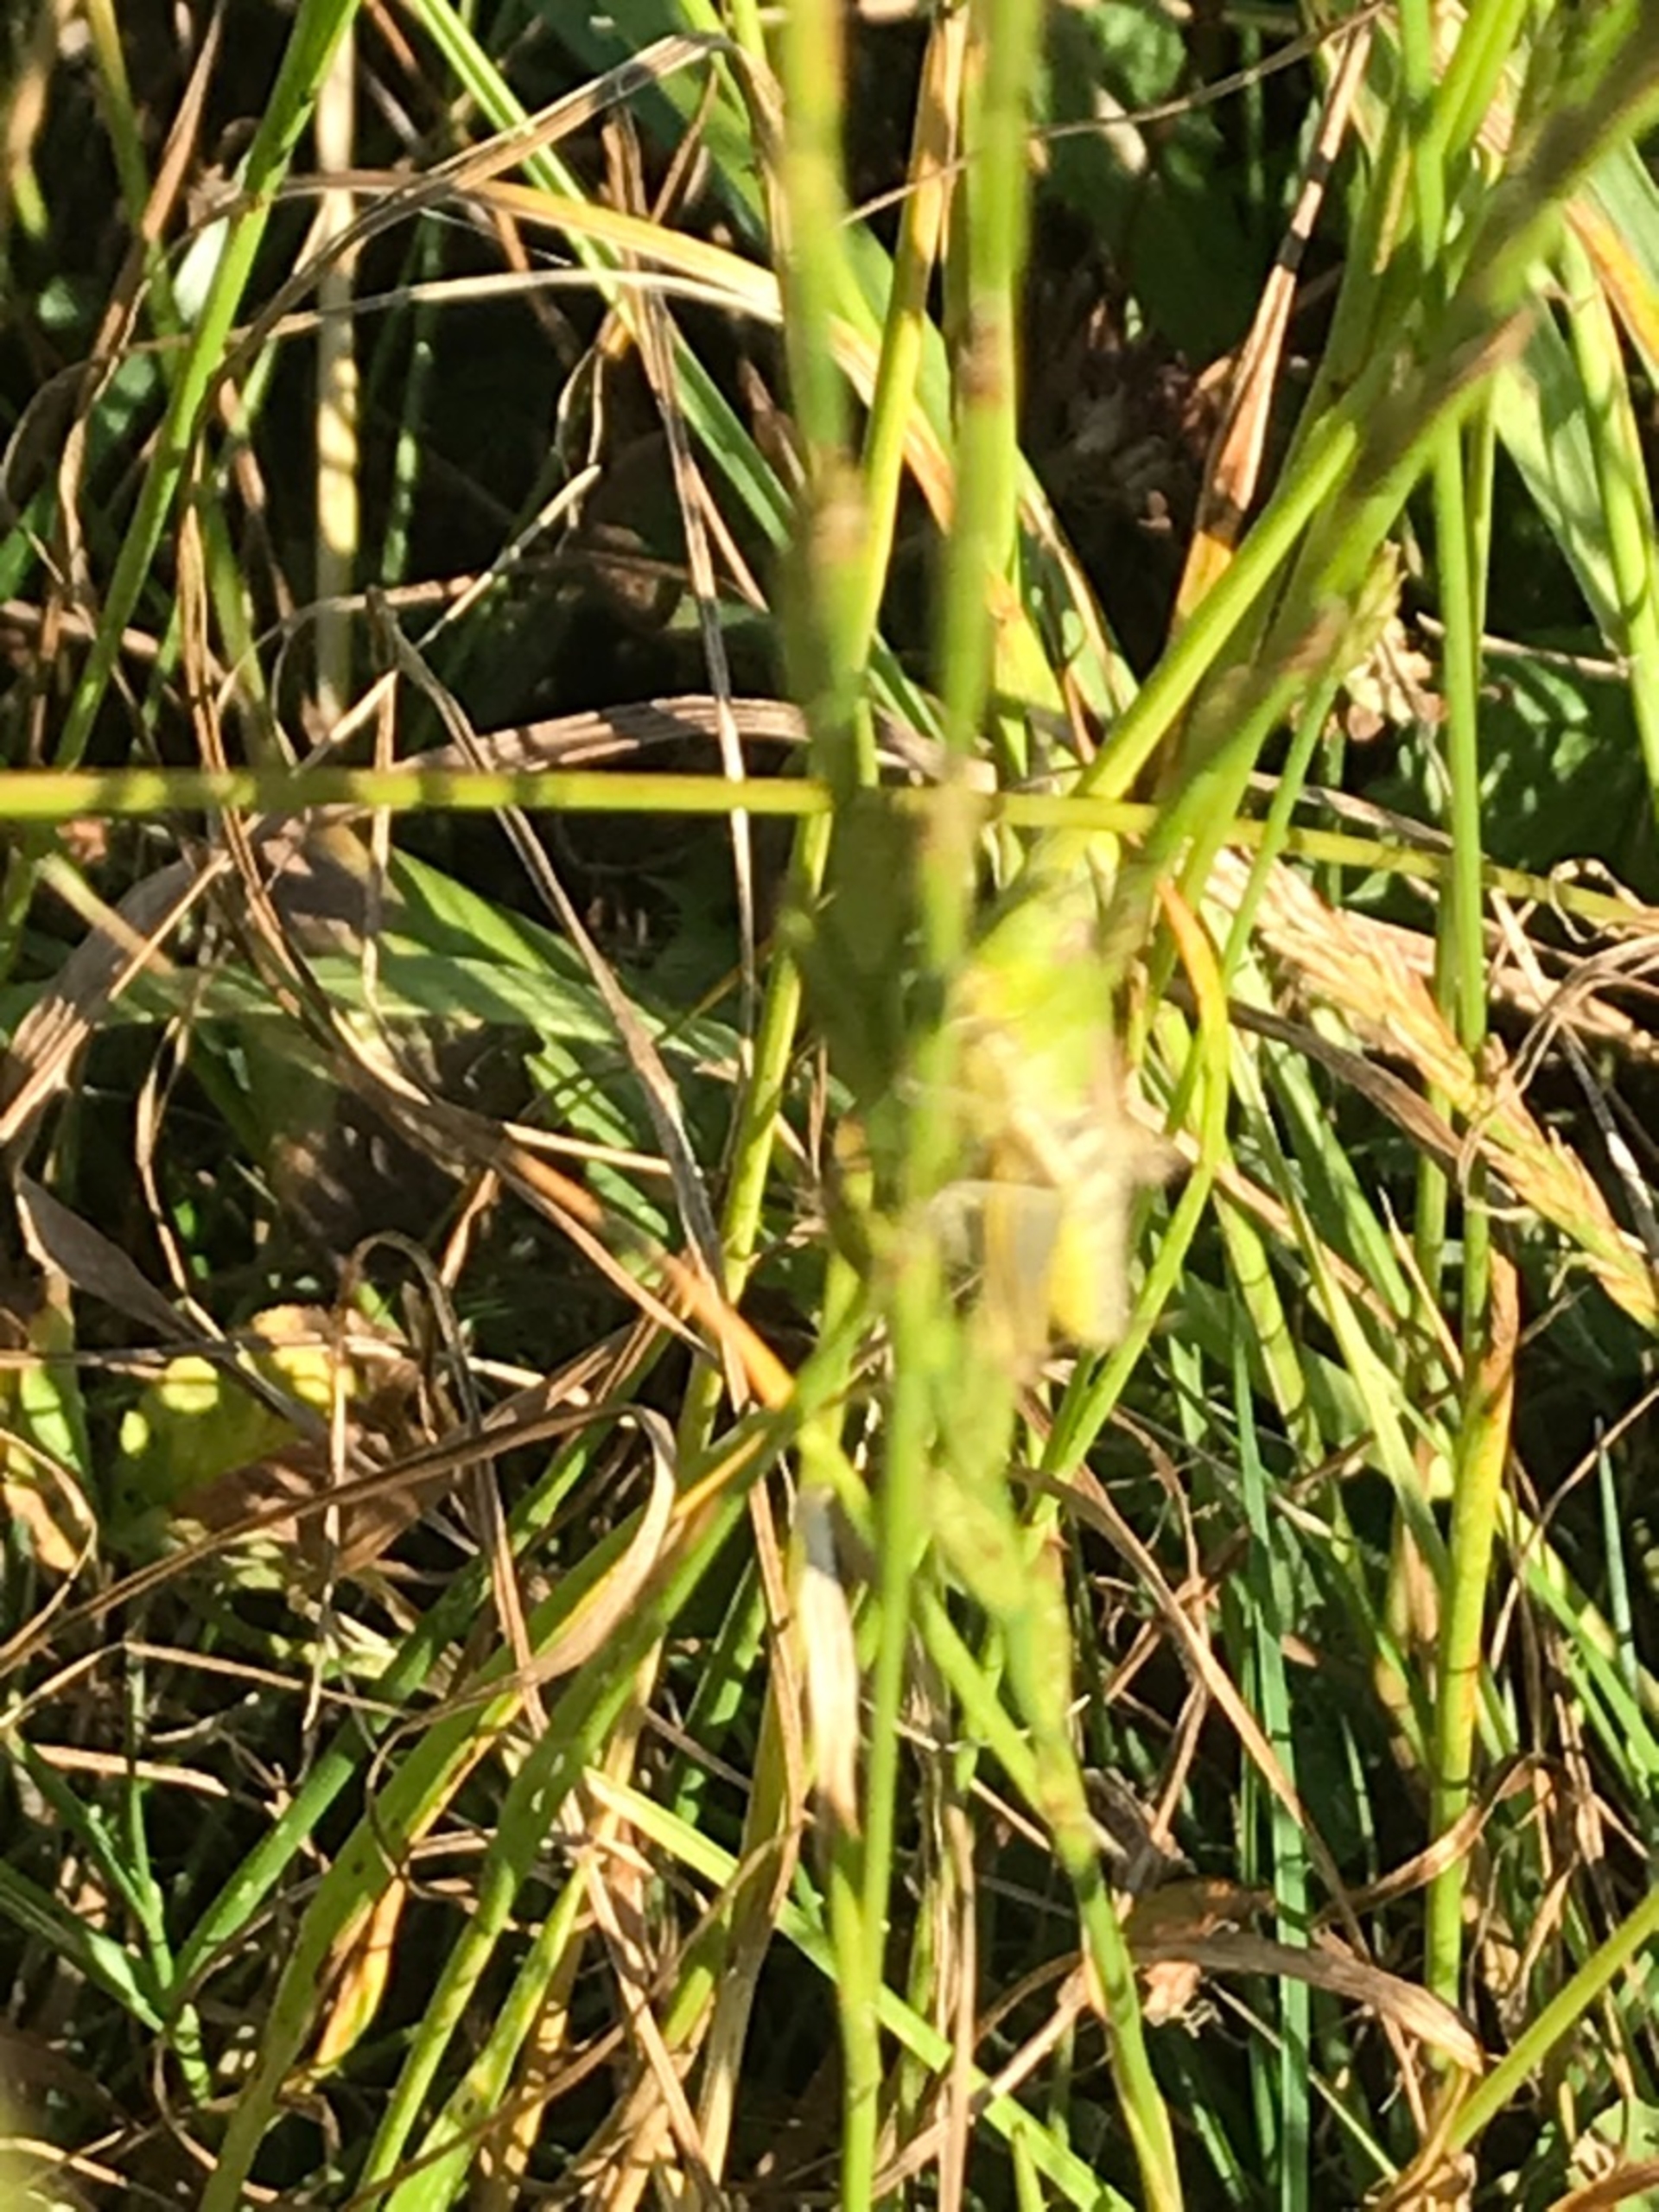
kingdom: Animalia
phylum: Arthropoda
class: Insecta
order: Orthoptera
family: Acrididae
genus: Pseudochorthippus
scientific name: Pseudochorthippus parallelus
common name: Enggræshoppe
